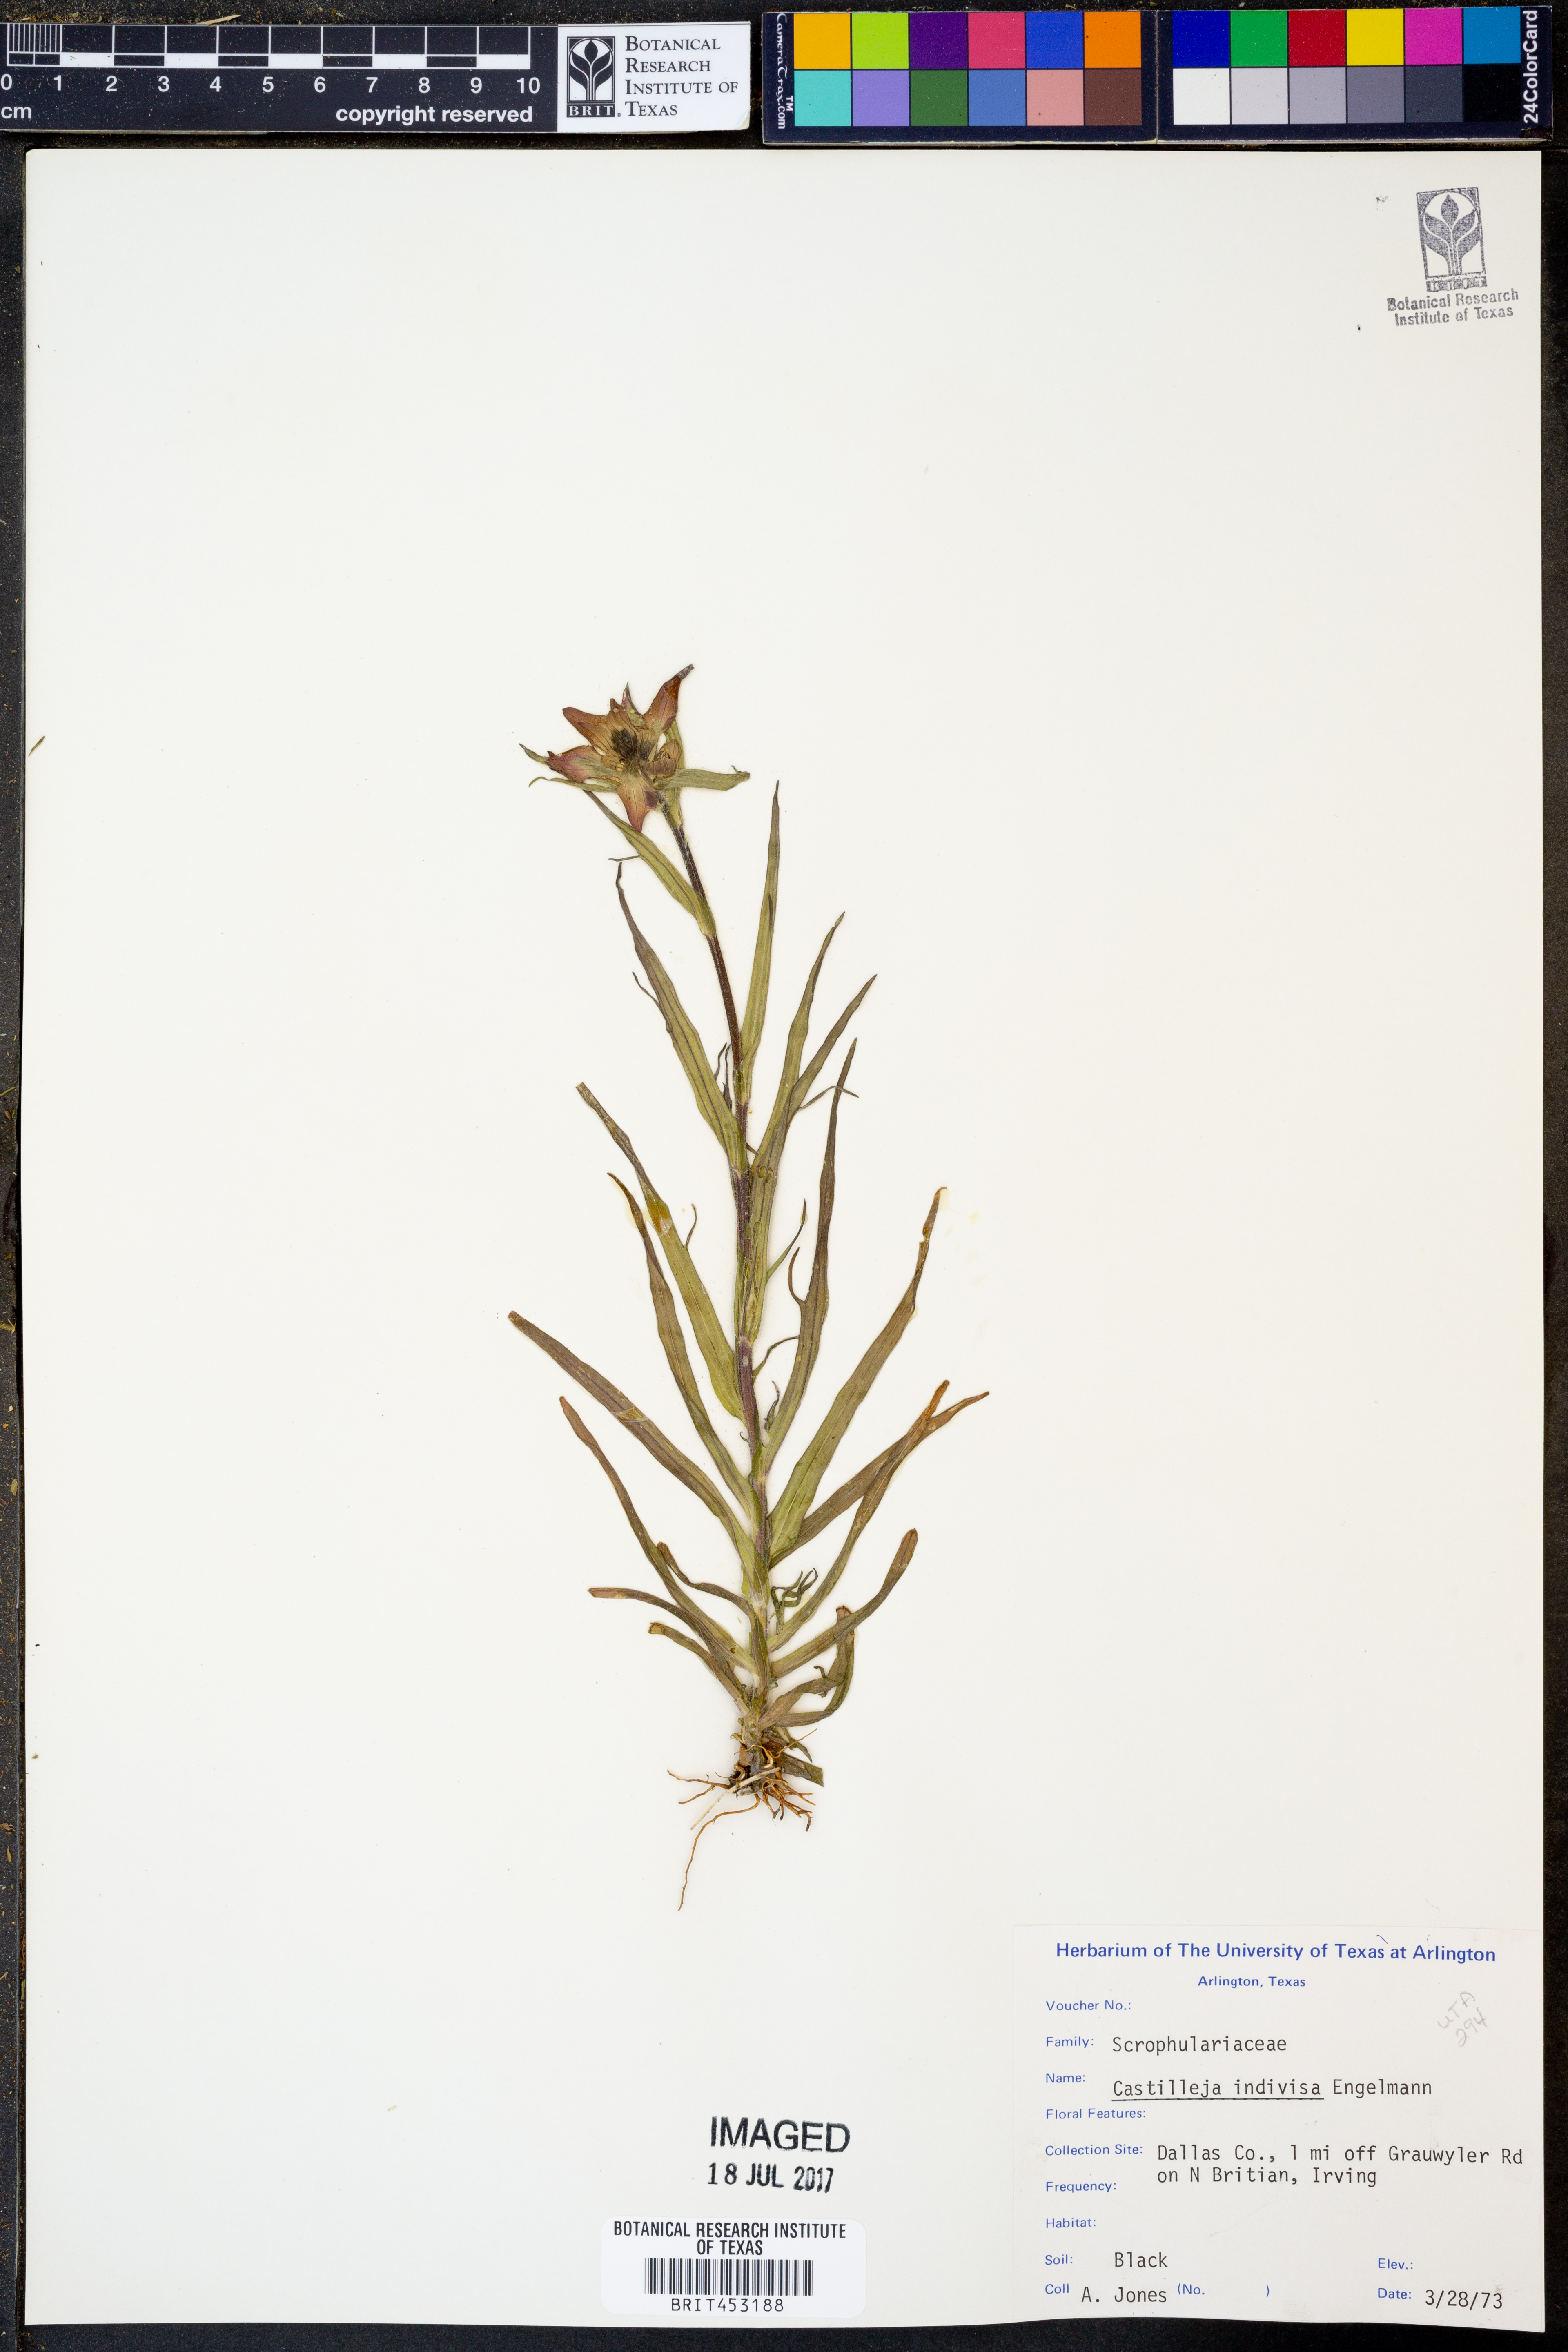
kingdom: Plantae
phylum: Tracheophyta
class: Magnoliopsida
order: Lamiales
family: Orobanchaceae
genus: Castilleja
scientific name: Castilleja indivisa
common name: Texas paintbrush
